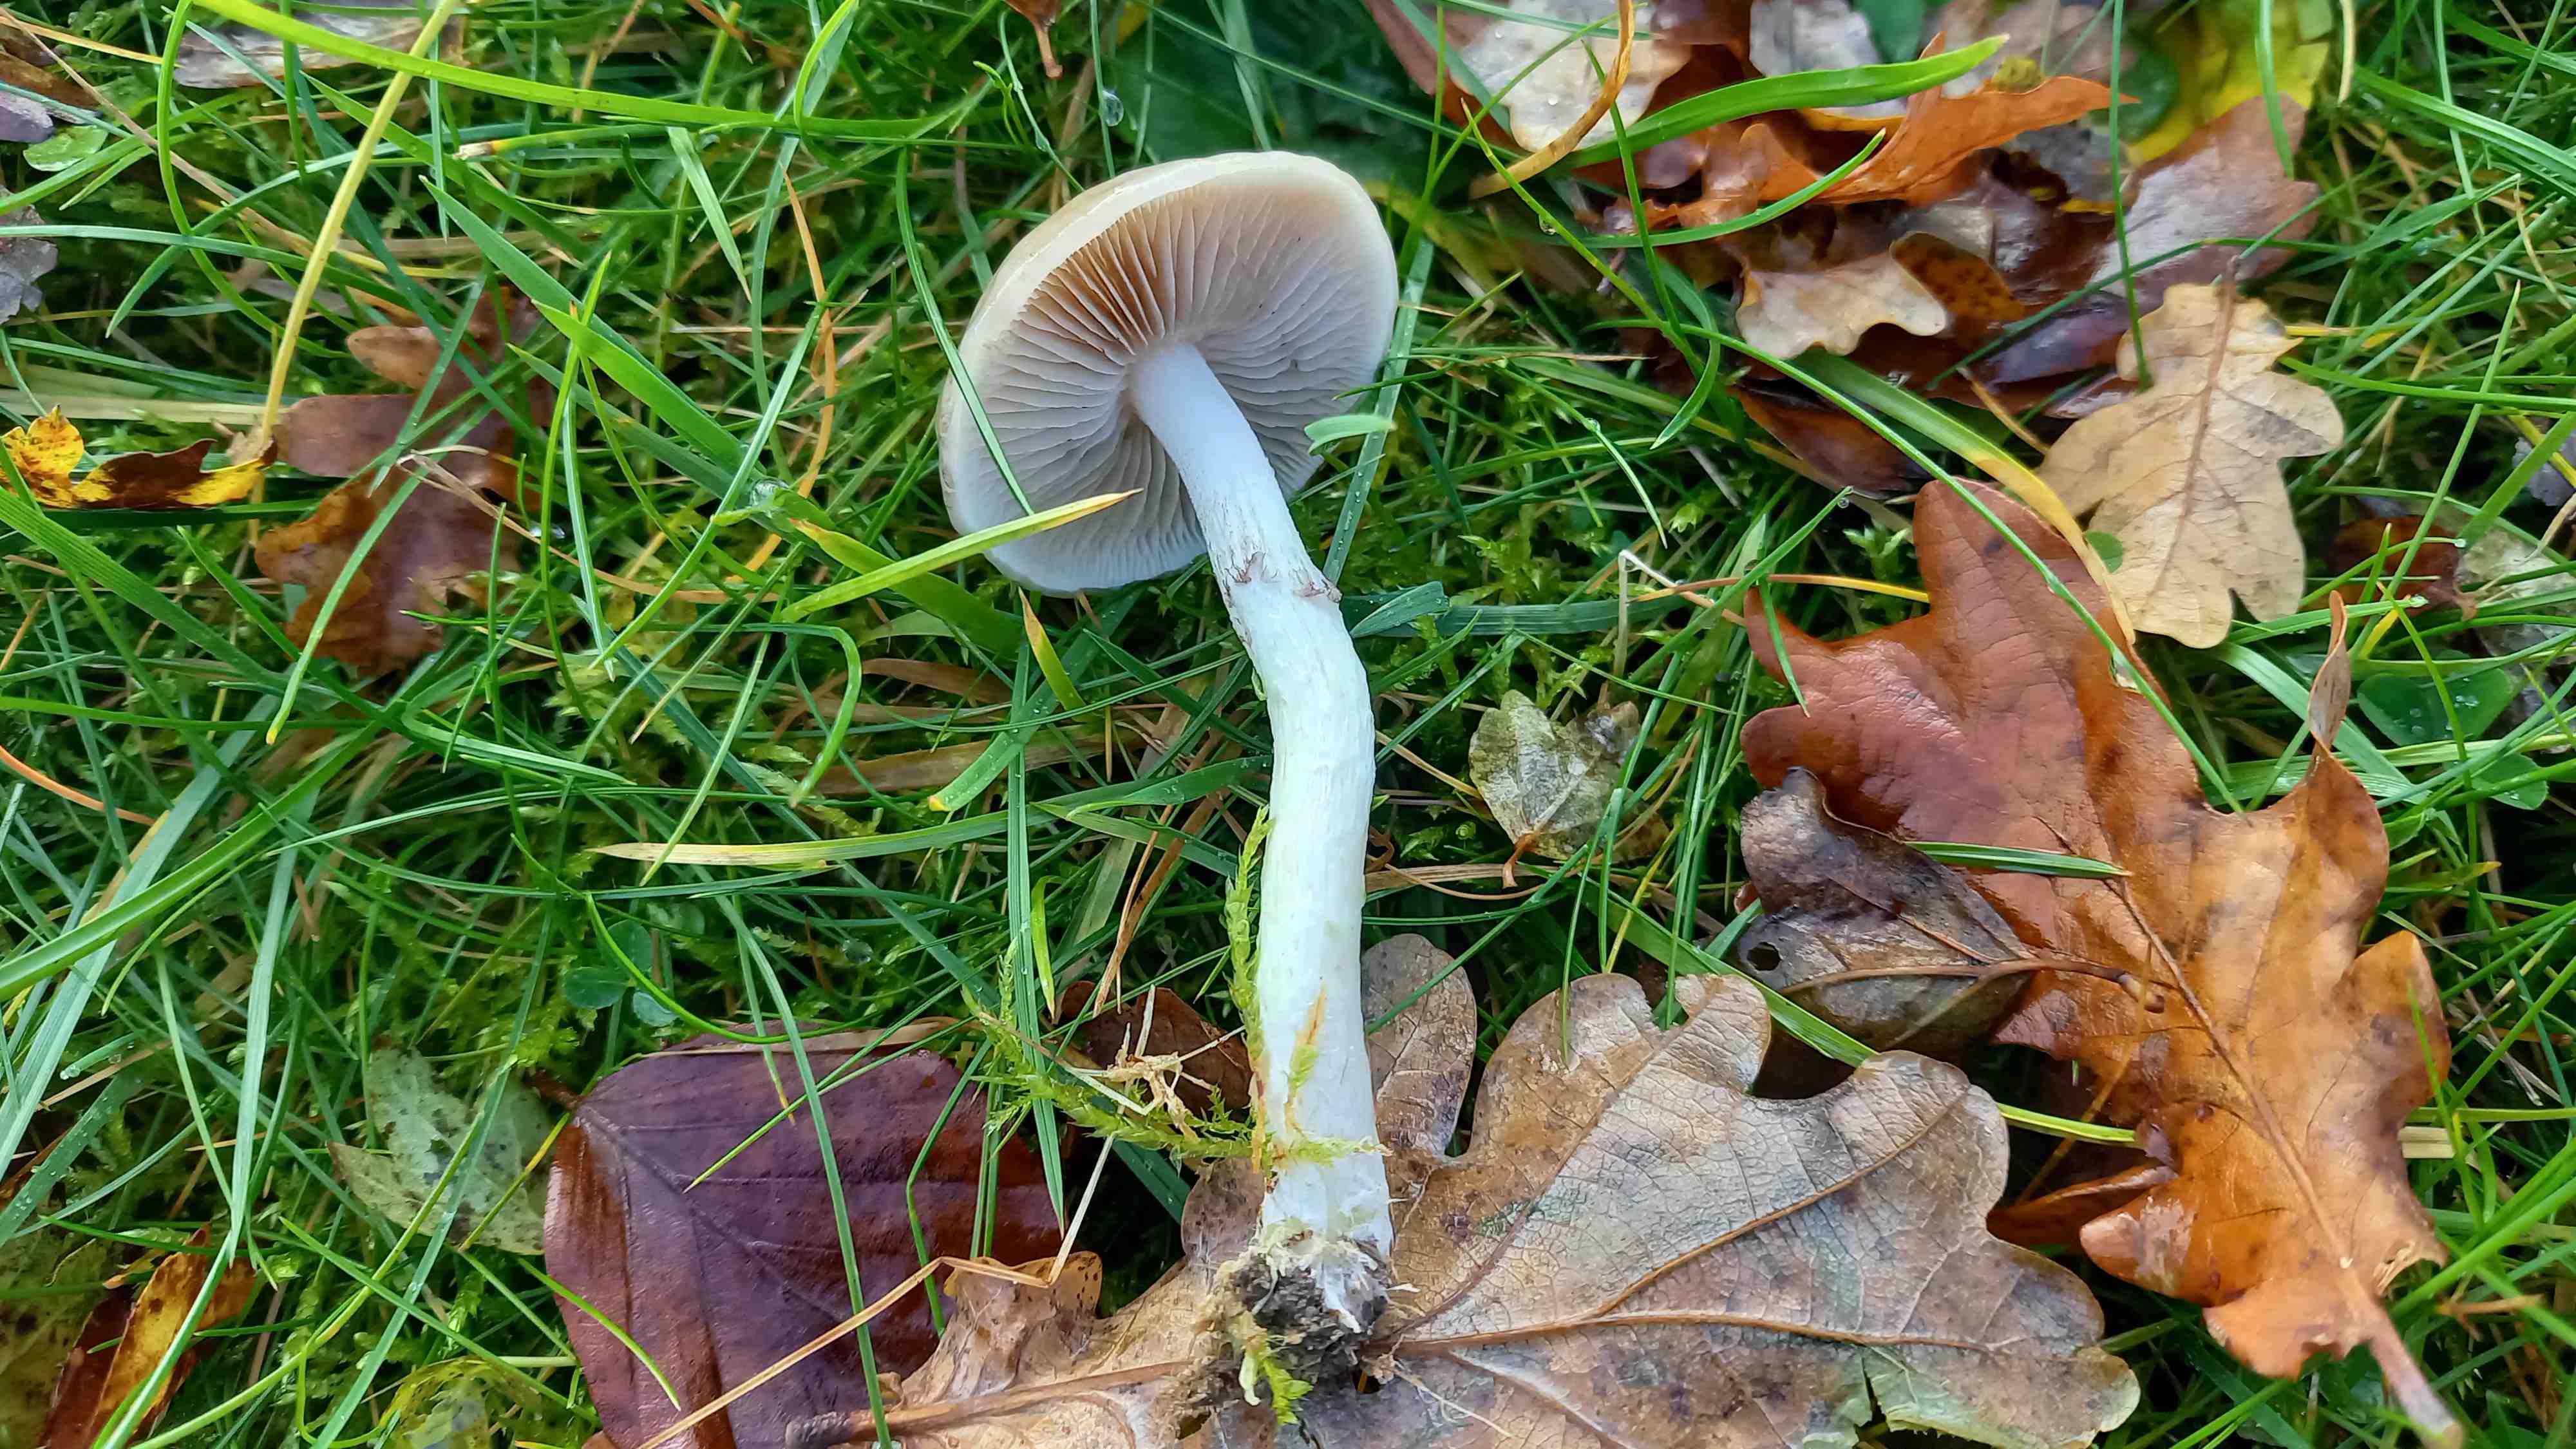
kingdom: Fungi
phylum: Basidiomycota
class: Agaricomycetes
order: Agaricales
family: Strophariaceae
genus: Stropharia
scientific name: Stropharia inuncta
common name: lillabrun bredblad
